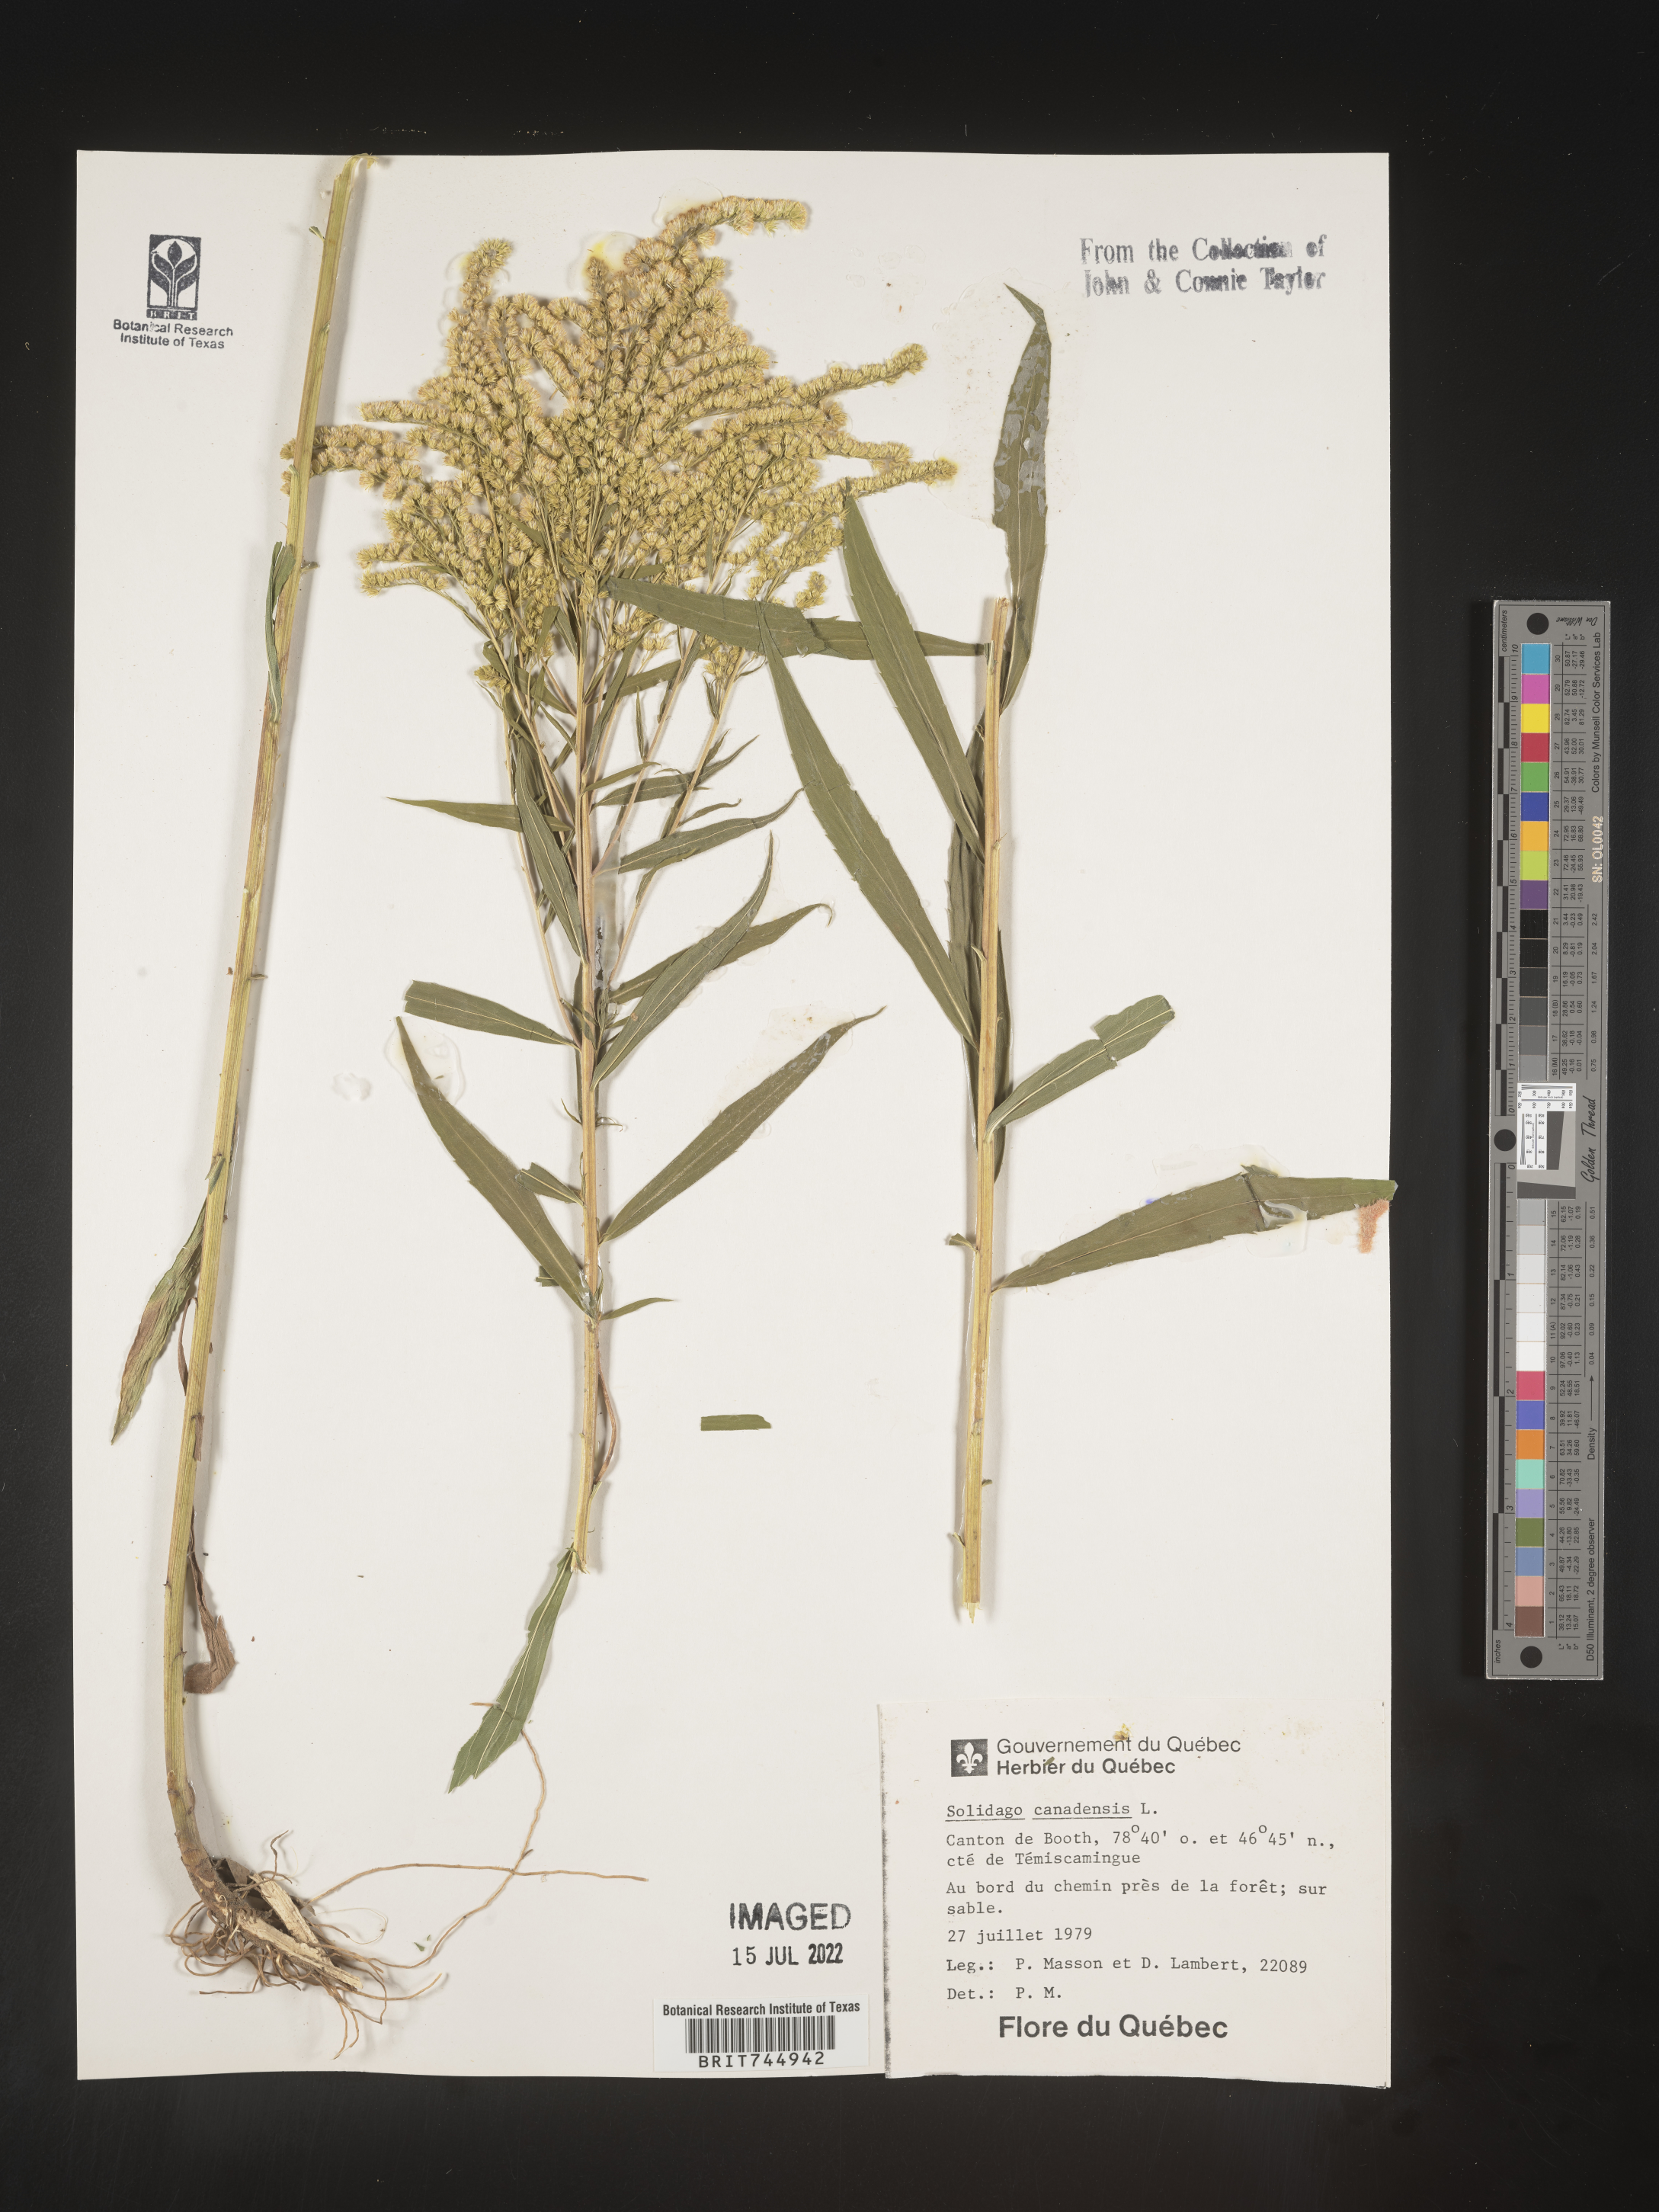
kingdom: Plantae
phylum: Tracheophyta
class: Magnoliopsida
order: Asterales
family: Asteraceae
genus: Solidago
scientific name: Solidago canadensis
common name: Canada goldenrod
